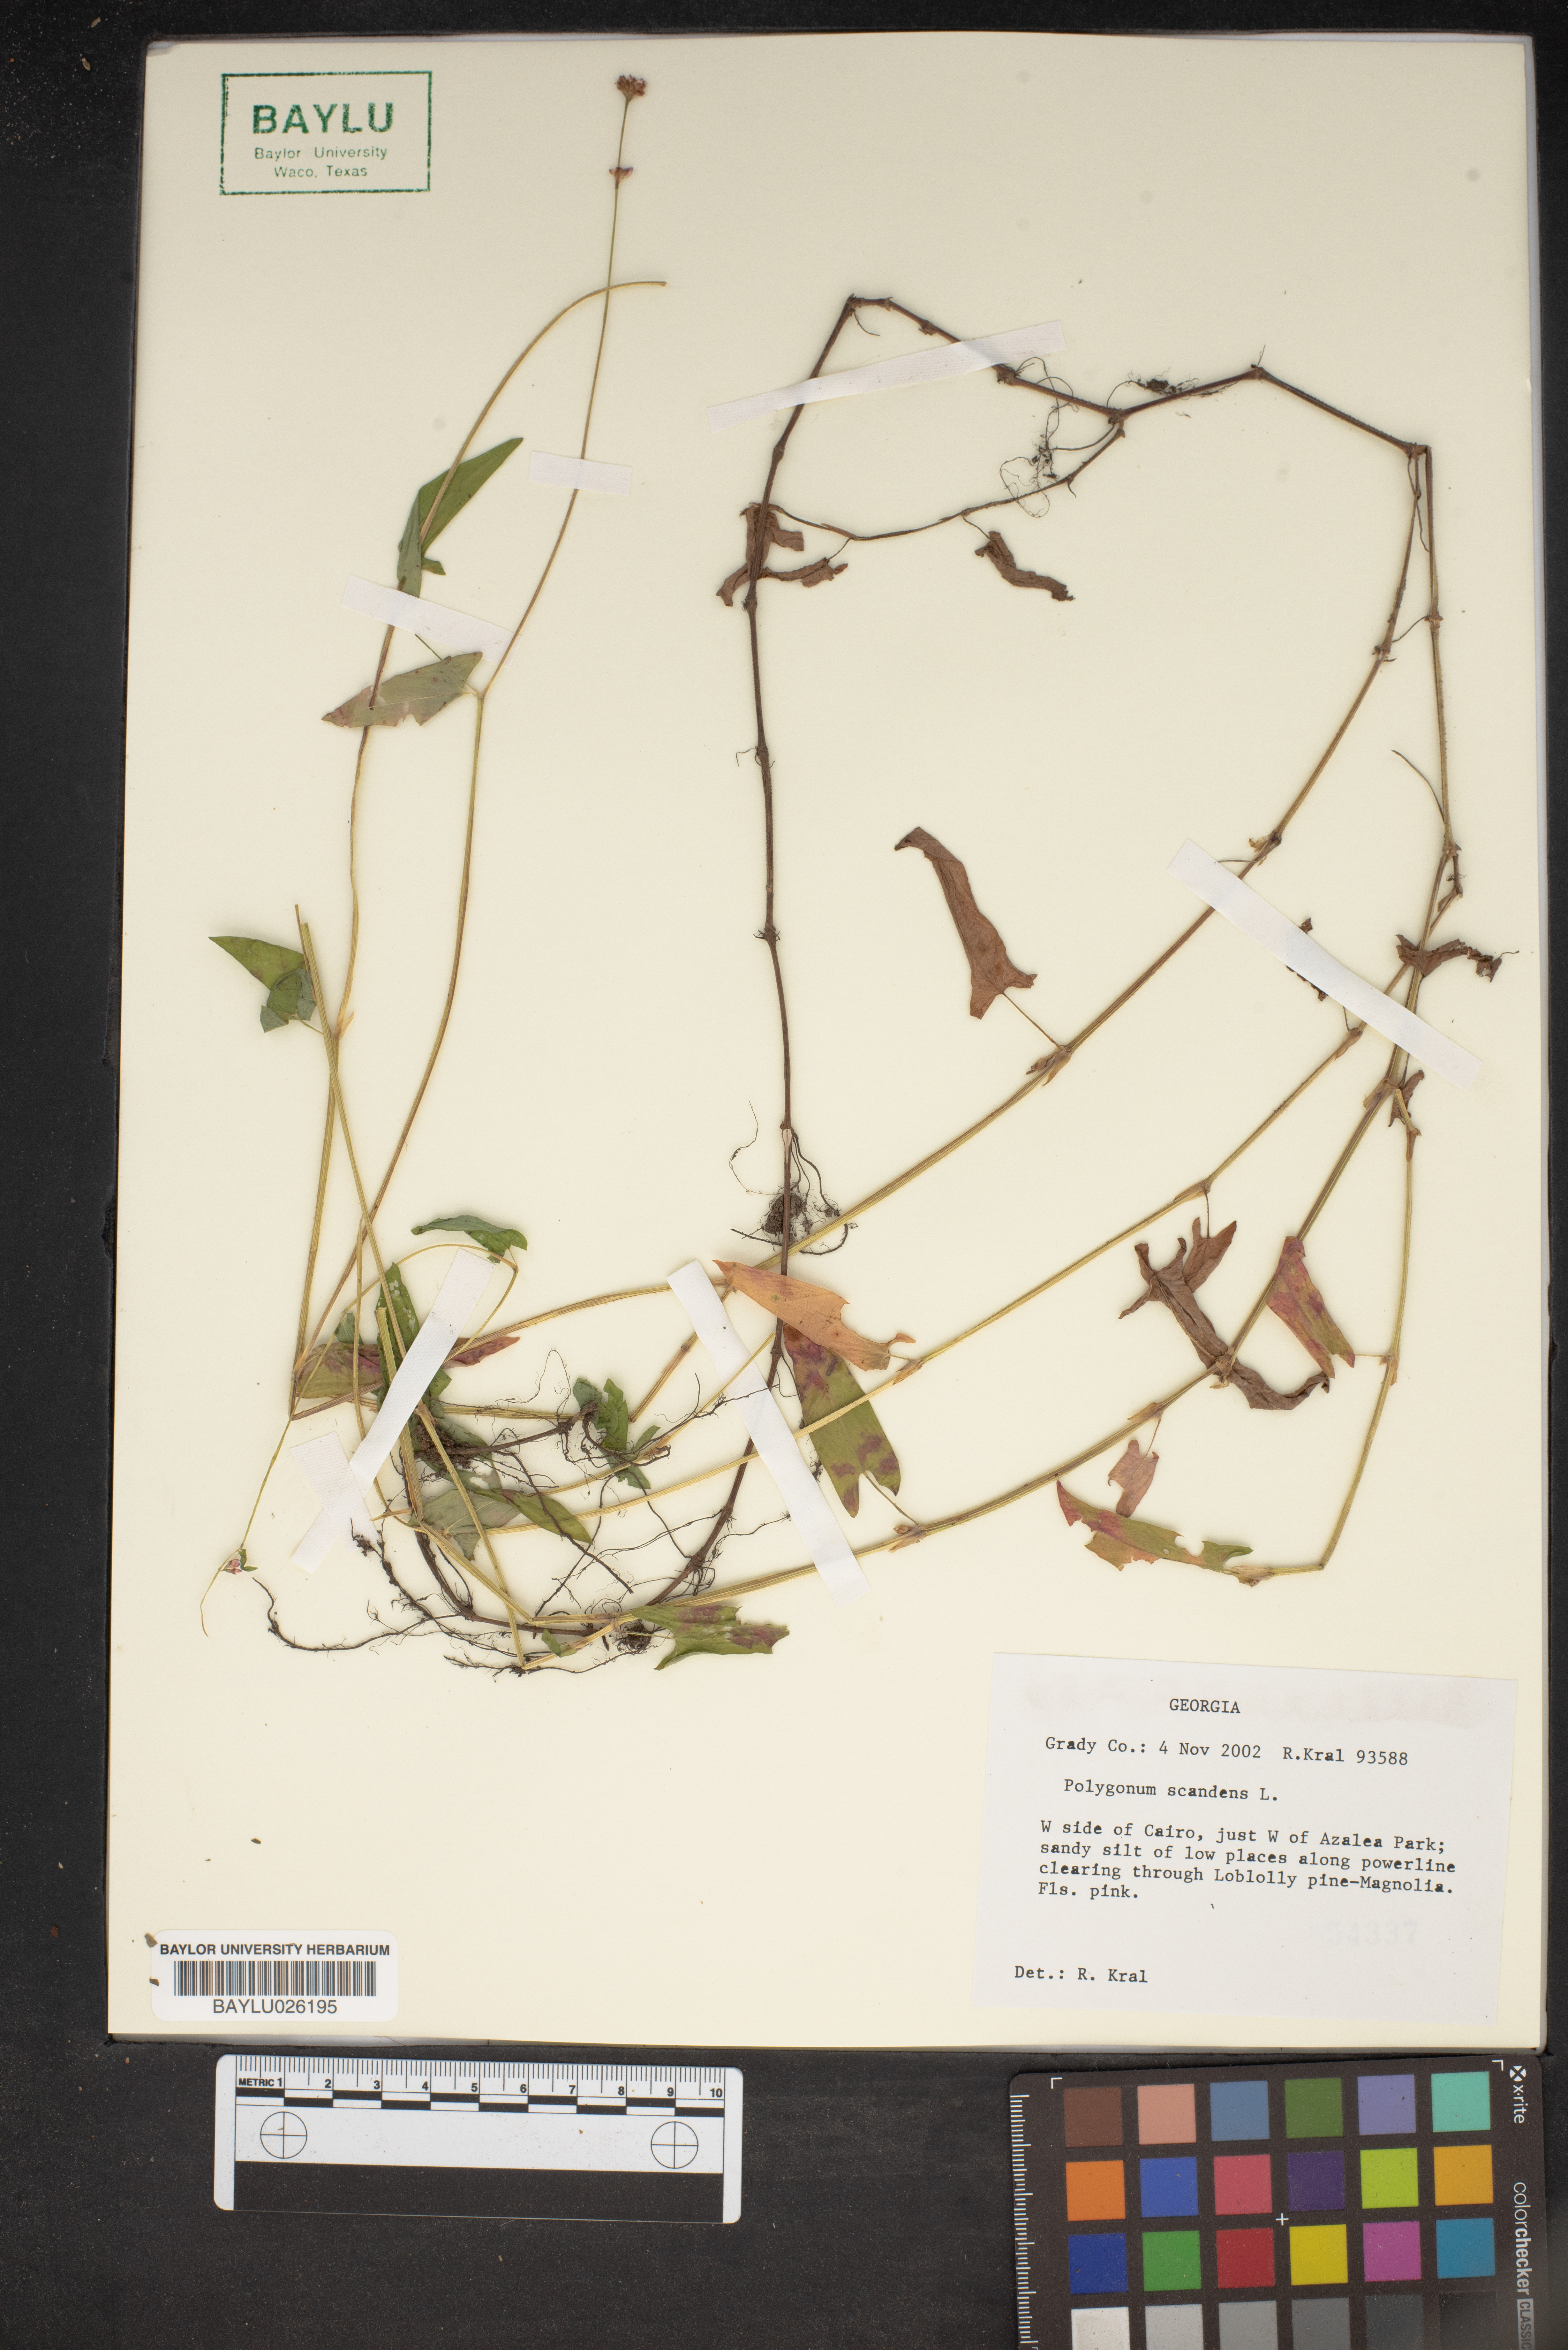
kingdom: Plantae
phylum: Tracheophyta
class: Magnoliopsida
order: Caryophyllales
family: Polygonaceae
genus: Fallopia
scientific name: Fallopia scandens
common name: Climbing false buckwheat
